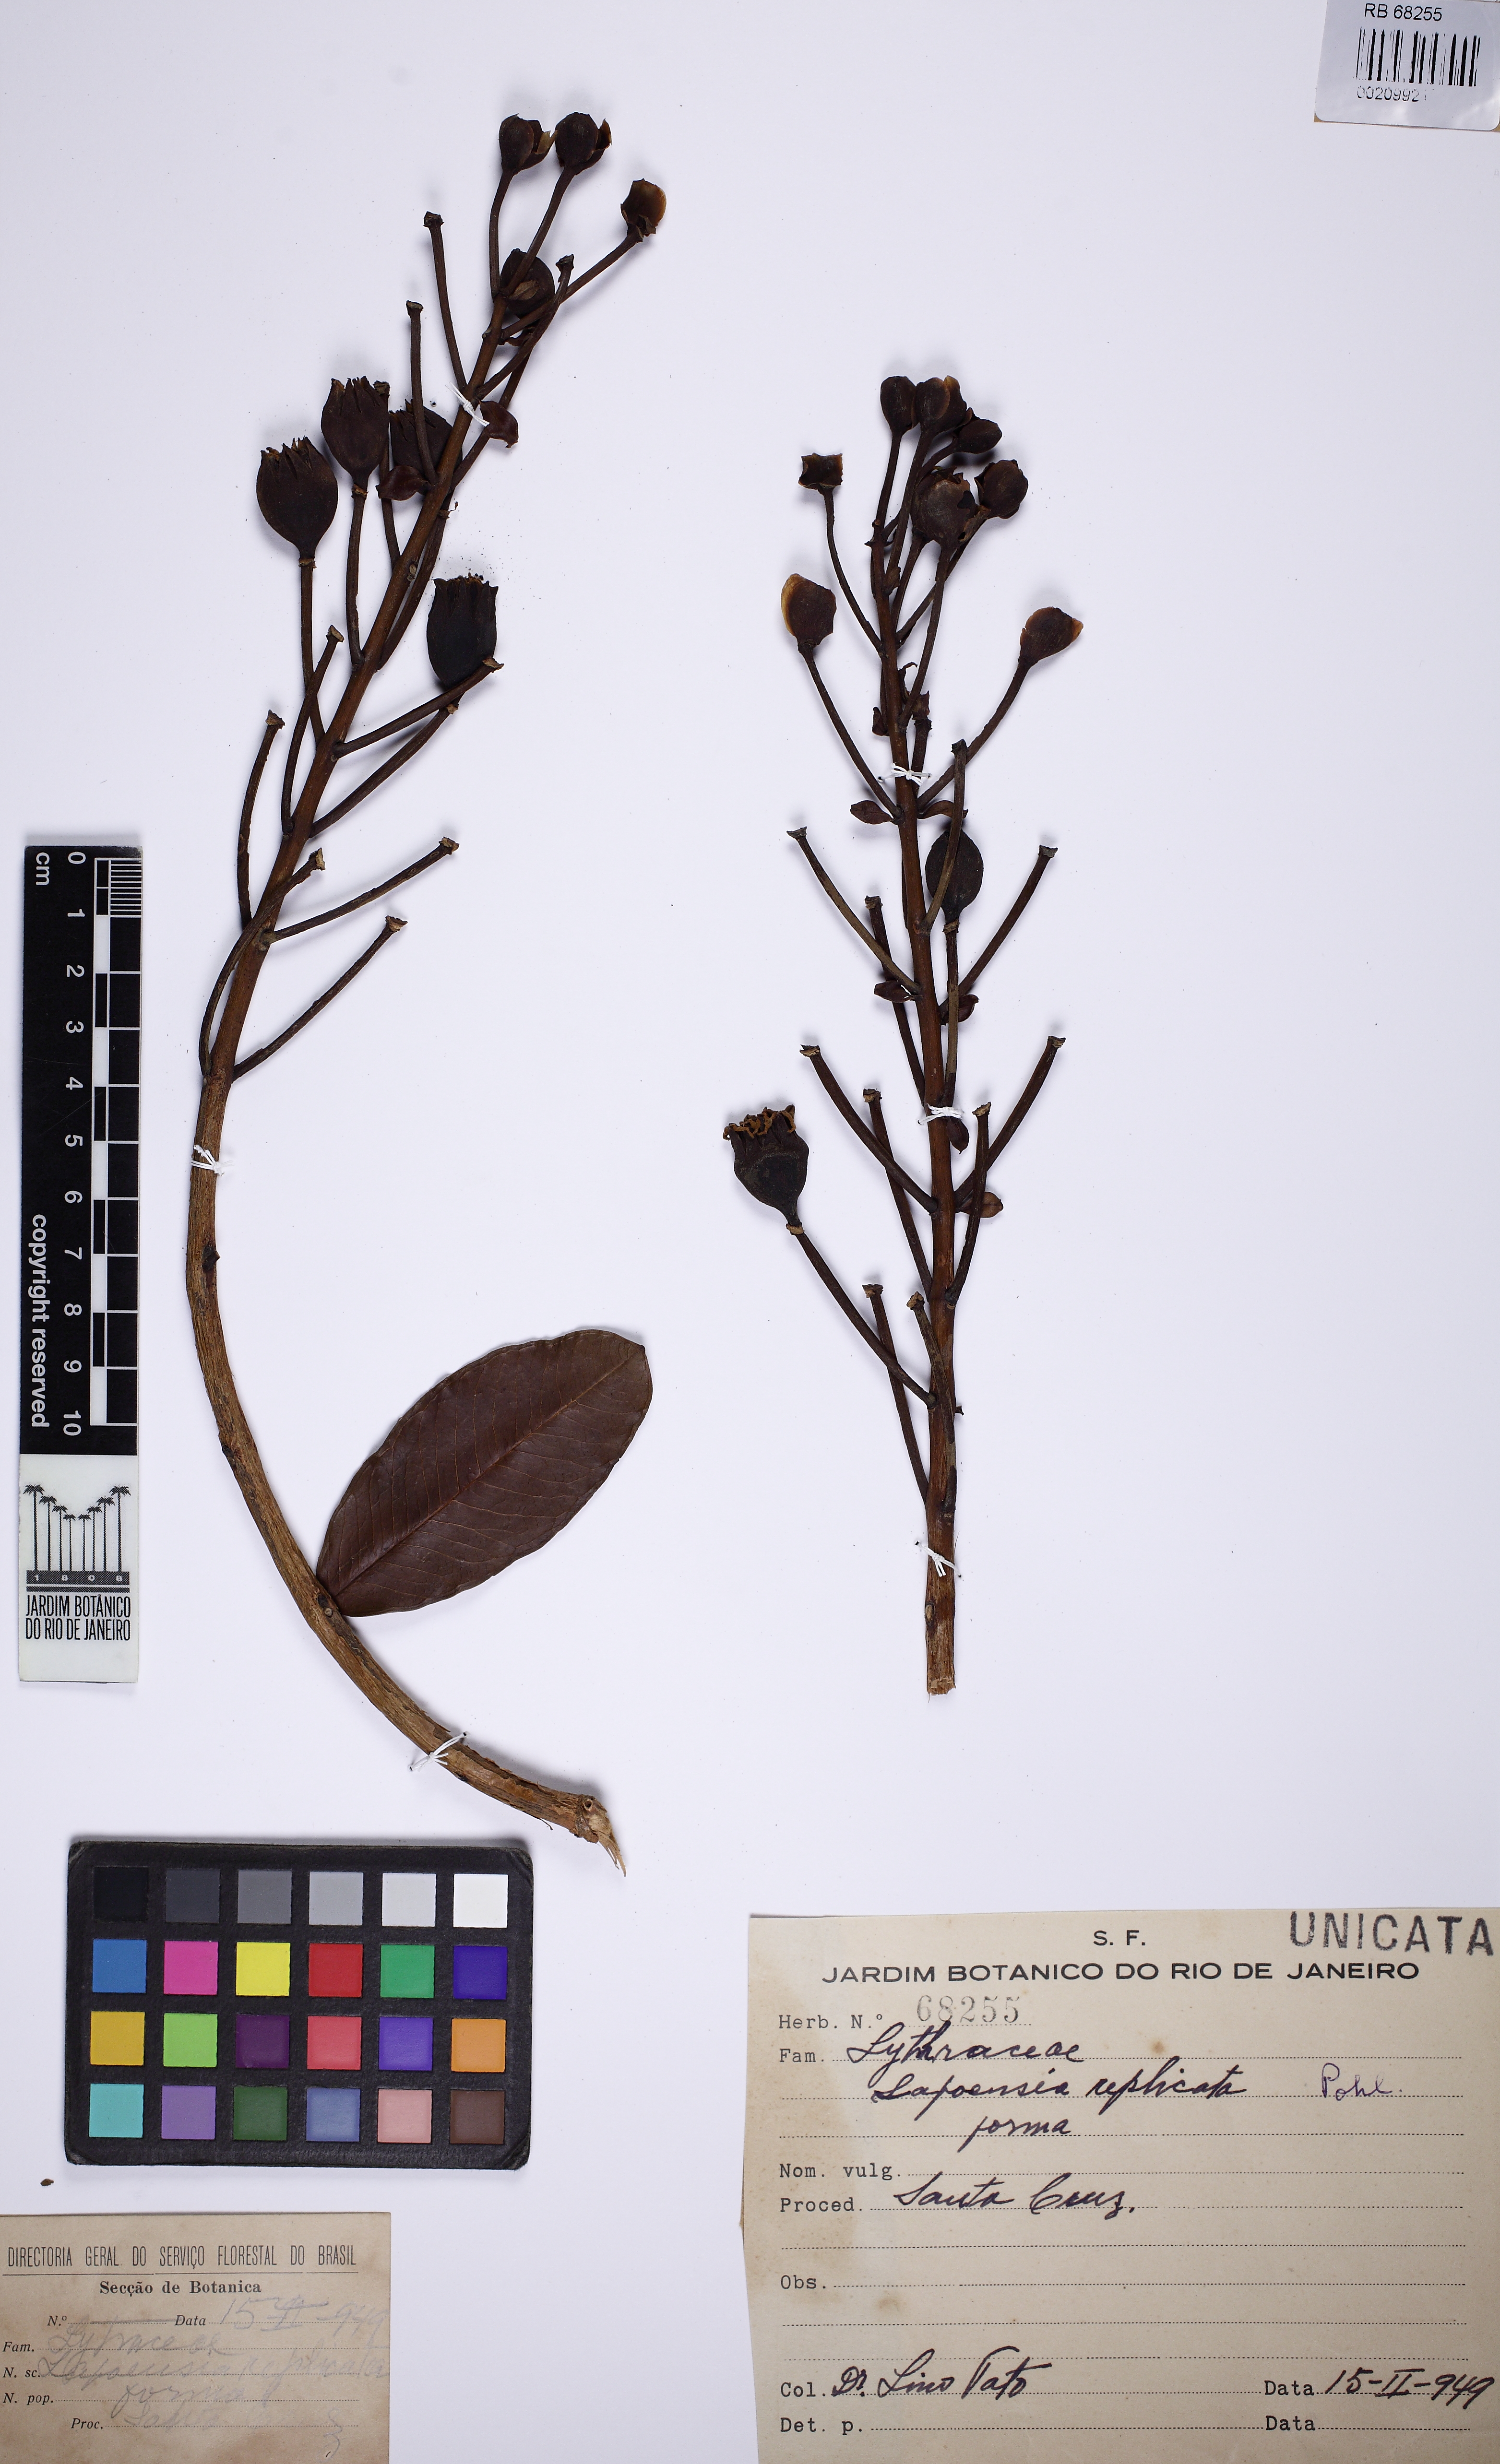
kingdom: Plantae
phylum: Tracheophyta
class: Magnoliopsida
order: Myrtales
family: Lythraceae
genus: Lafoensia
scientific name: Lafoensia vandelliana
